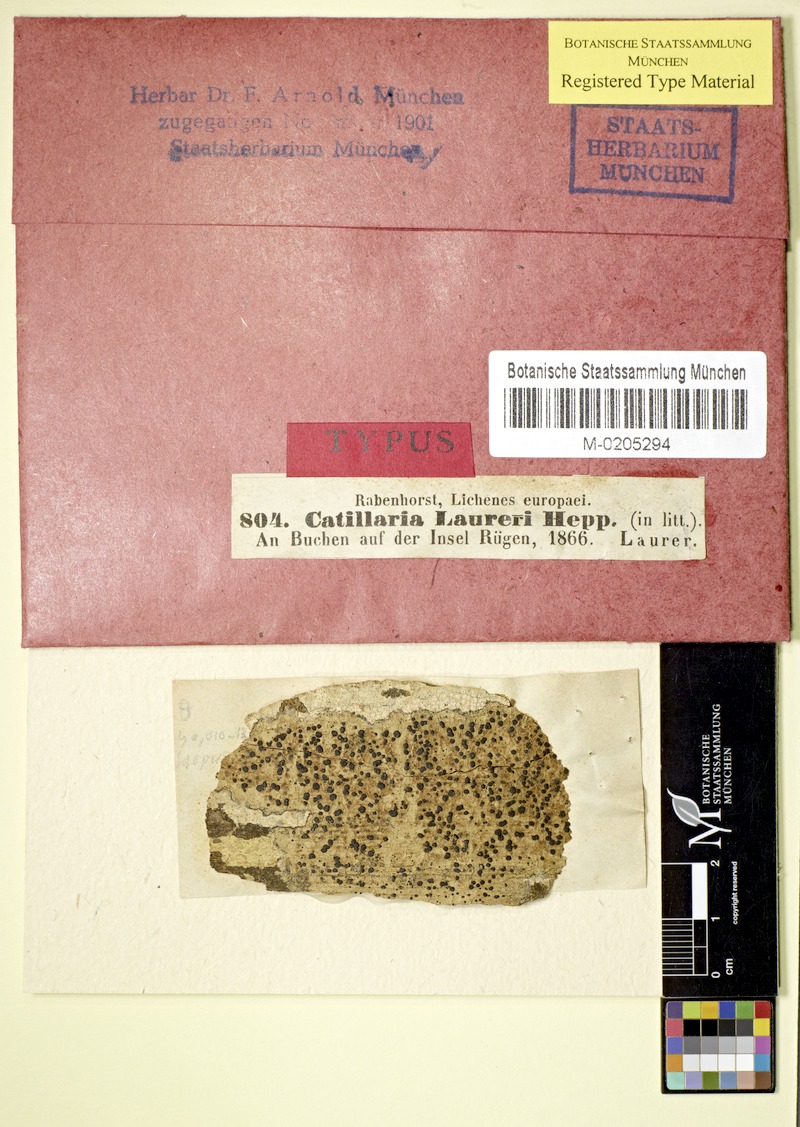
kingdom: Fungi
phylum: Ascomycota
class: Lecanoromycetes
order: Lecanorales
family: Ramalinaceae
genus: Megalaria
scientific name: Megalaria laureri
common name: Laurer's catillaria
